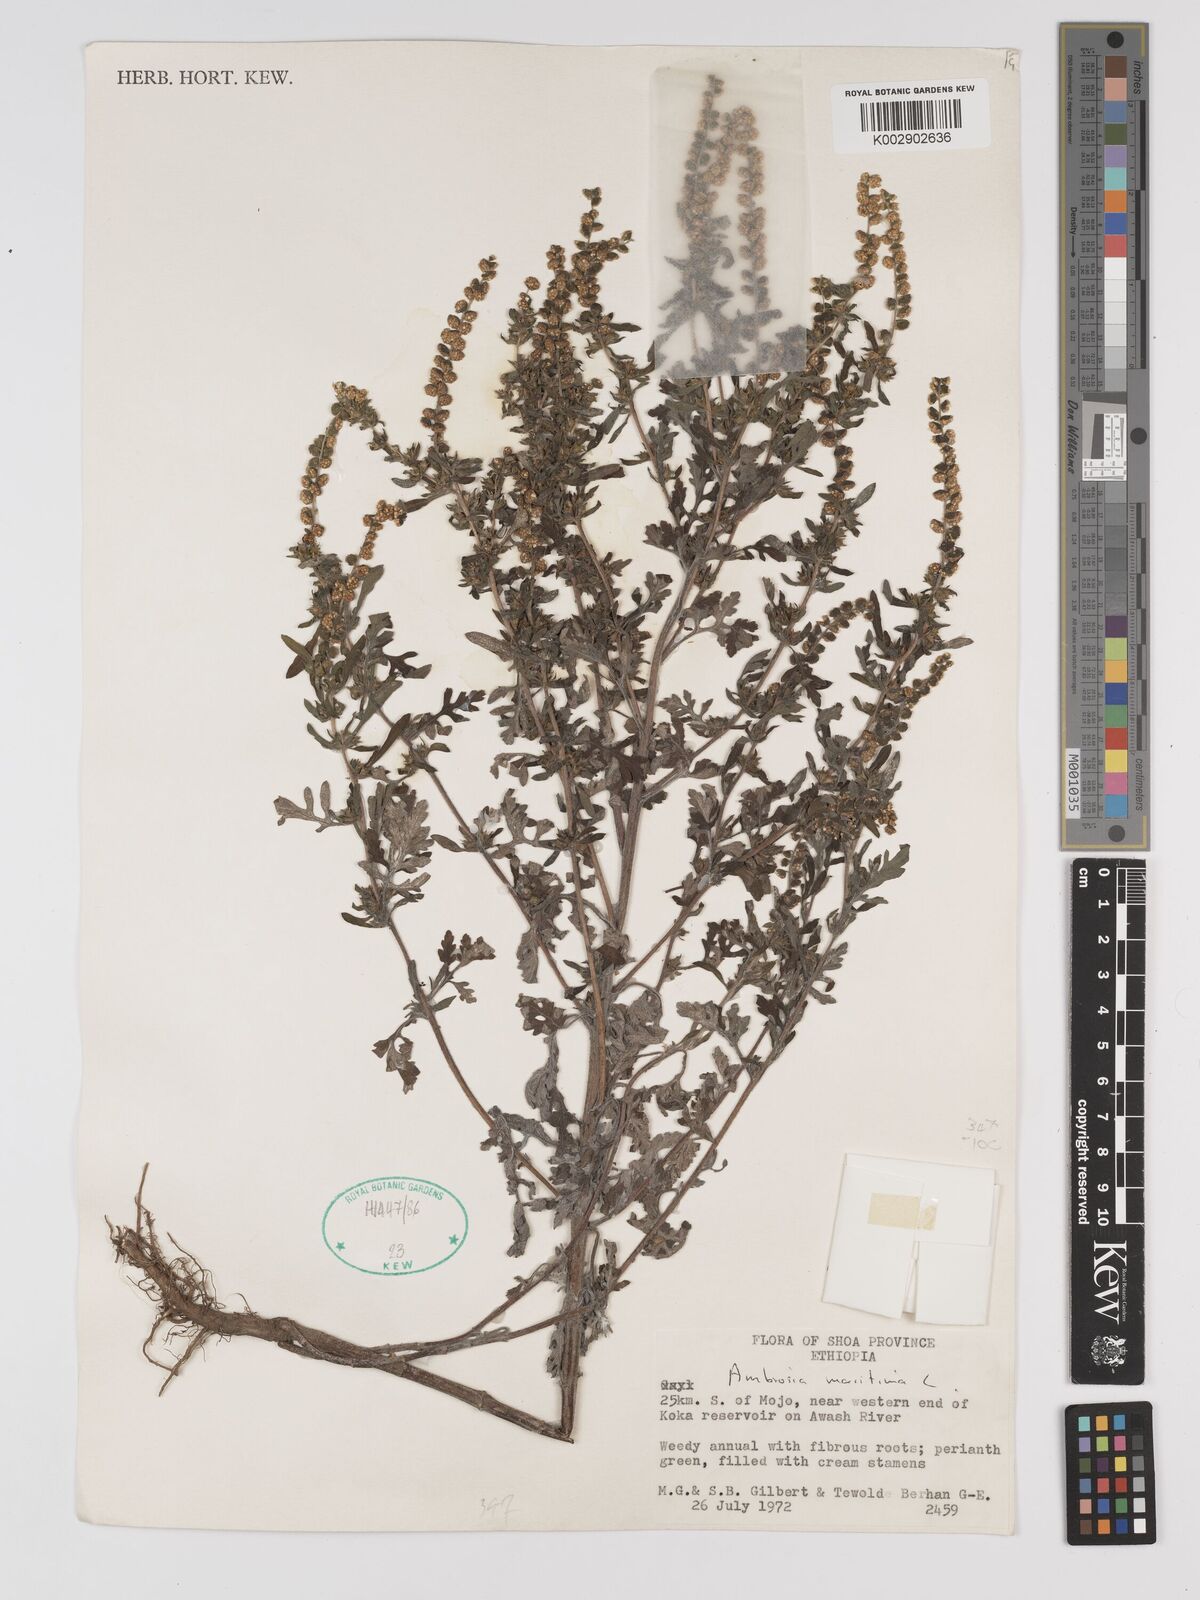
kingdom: Plantae
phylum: Tracheophyta
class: Magnoliopsida
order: Asterales
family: Asteraceae
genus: Ambrosia
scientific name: Ambrosia maritima
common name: Sea ambrosia
